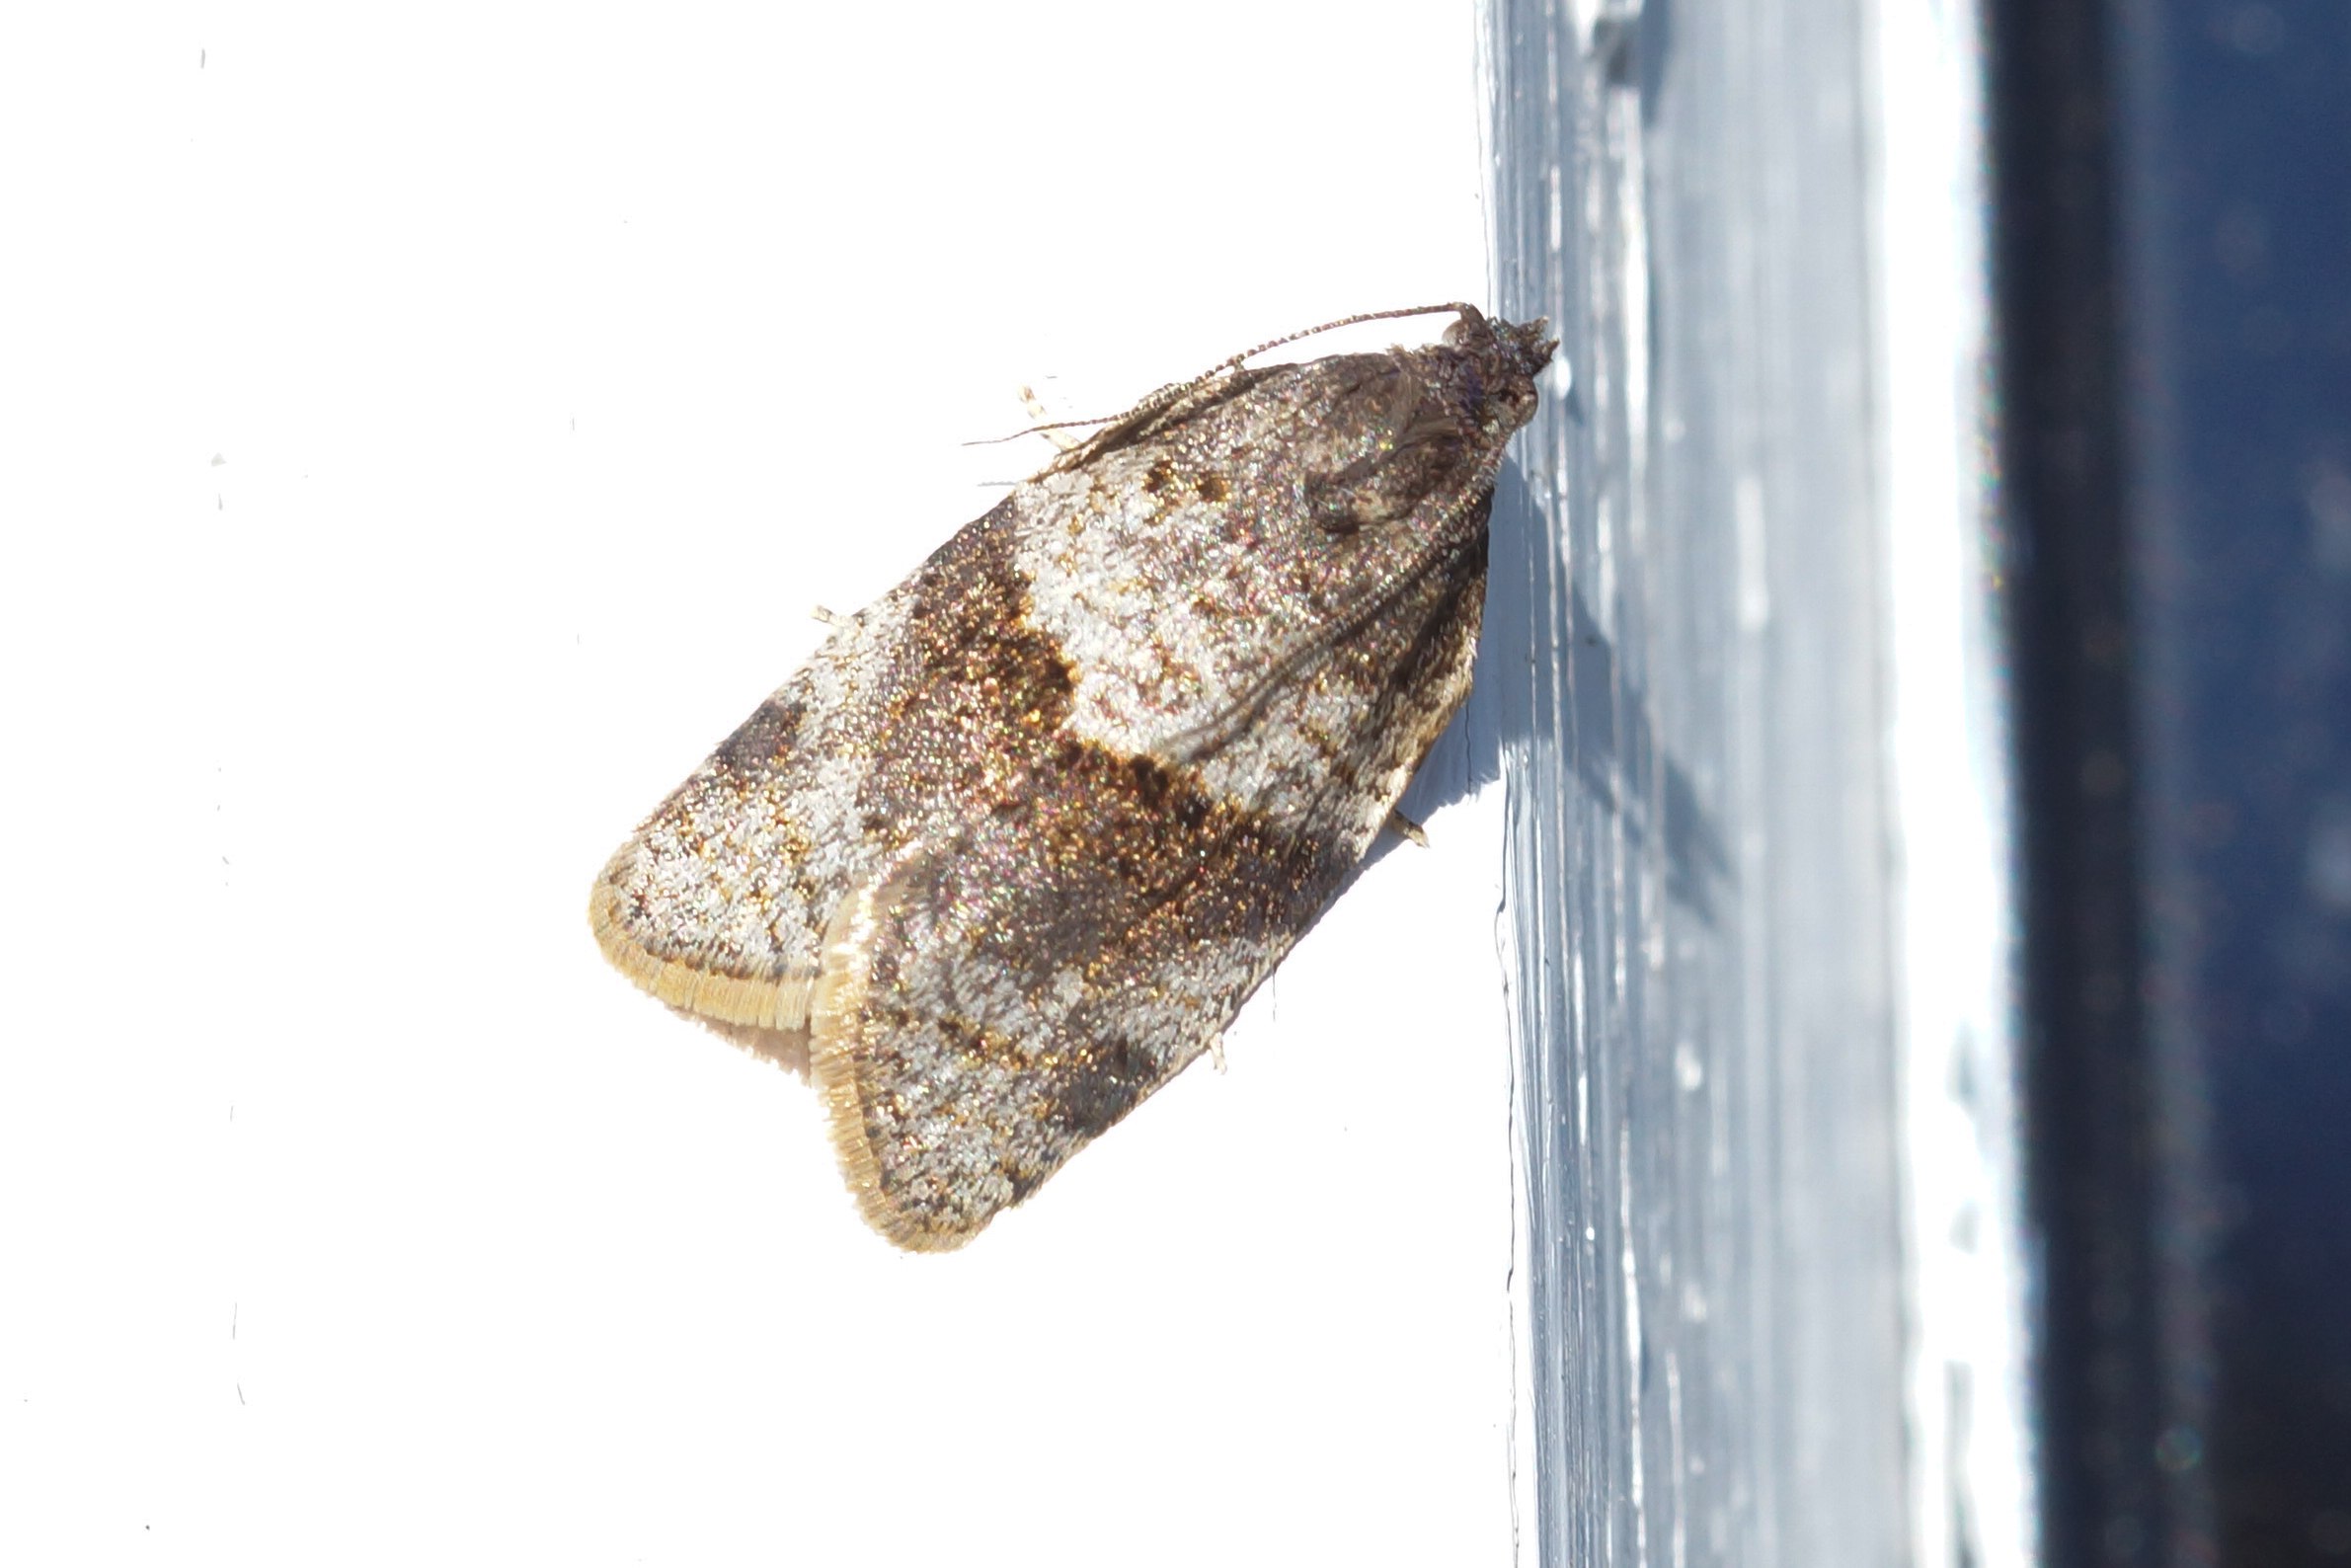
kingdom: Animalia
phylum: Arthropoda
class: Insecta
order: Lepidoptera
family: Tortricidae
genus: Syndemis
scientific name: Syndemis musculana
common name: Høstvikler
